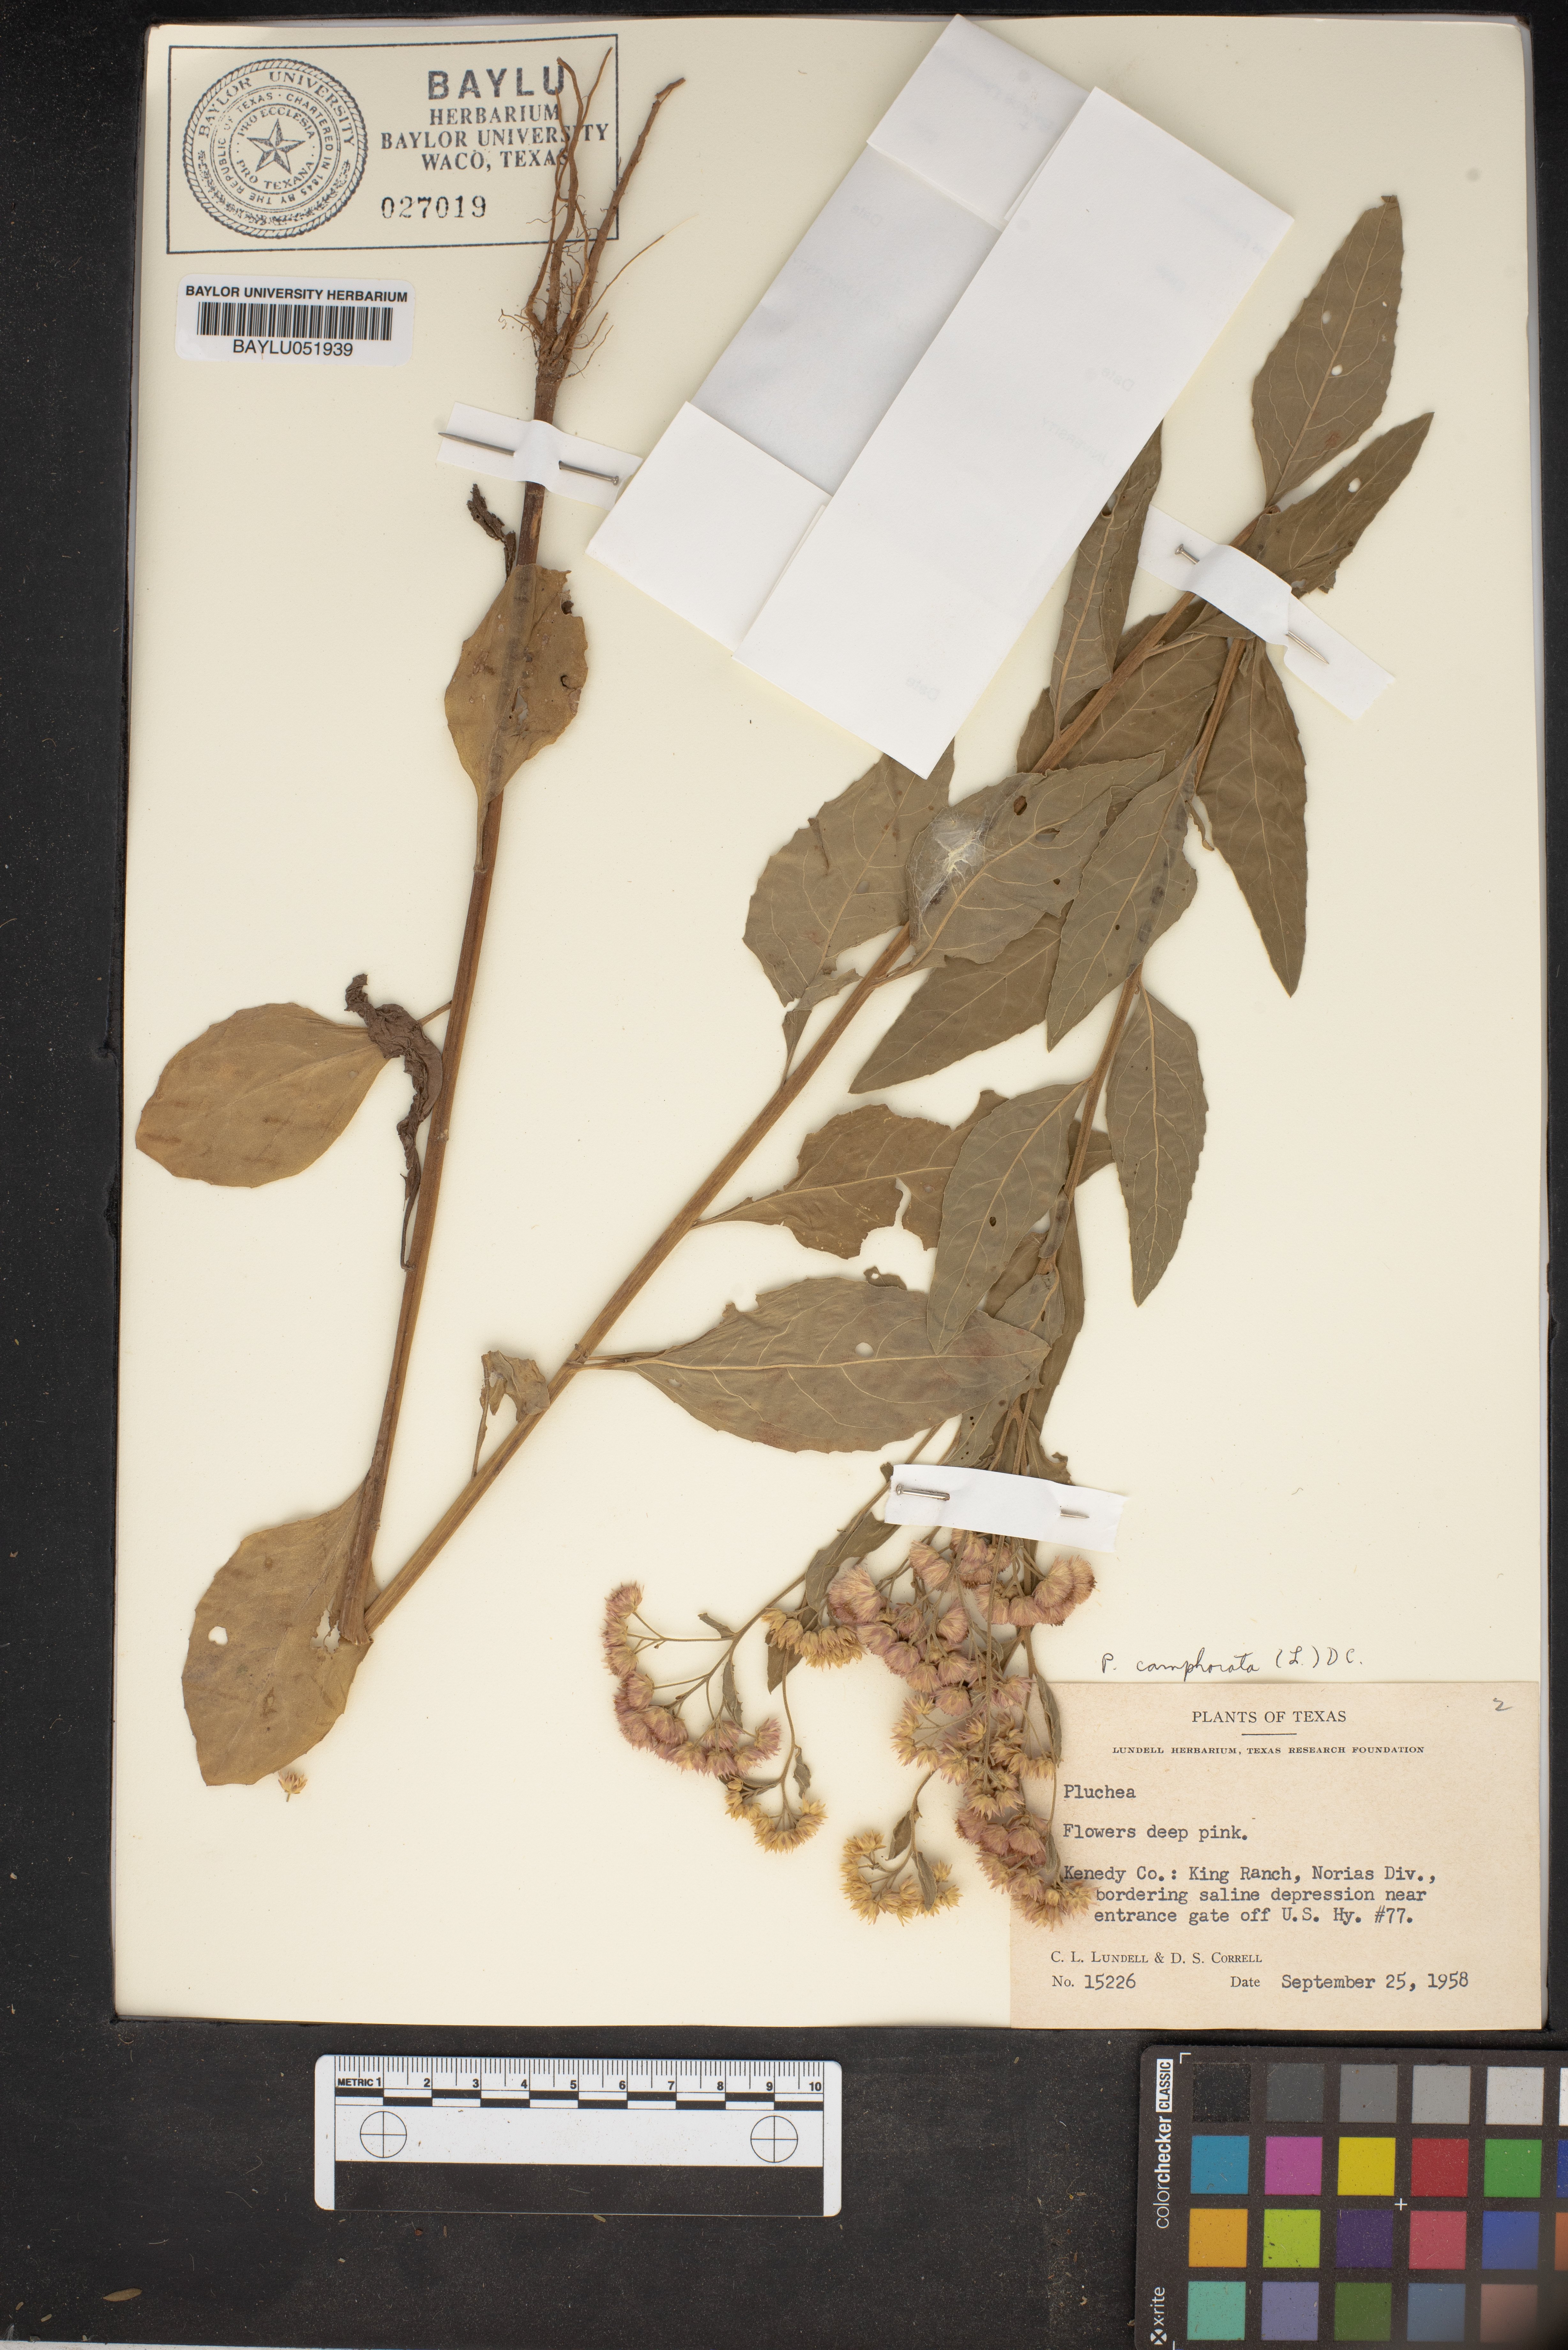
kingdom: Plantae
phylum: Tracheophyta
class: Magnoliopsida
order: Asterales
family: Asteraceae
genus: Pluchea
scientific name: Pluchea
